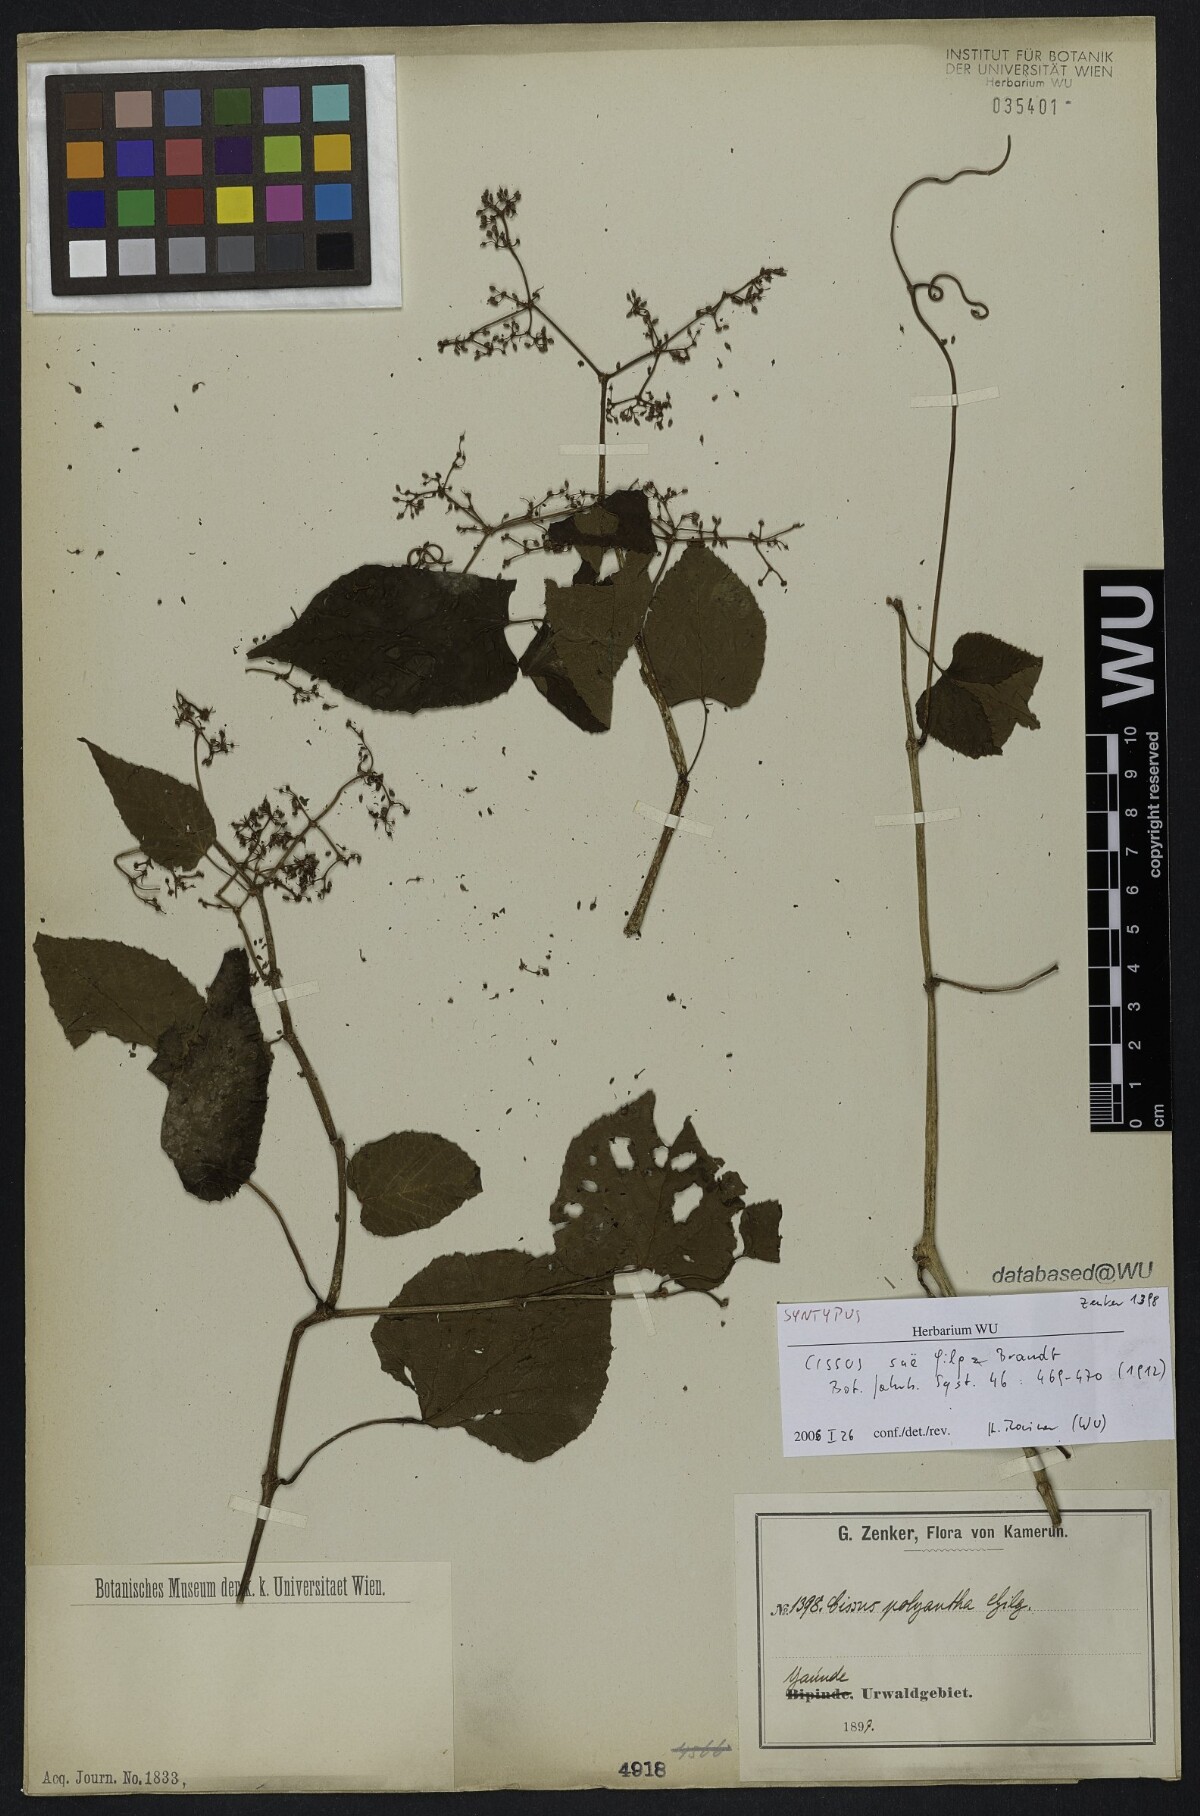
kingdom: Plantae
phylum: Tracheophyta
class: Magnoliopsida
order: Vitales
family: Vitaceae
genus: Cissus
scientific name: Cissus sue
